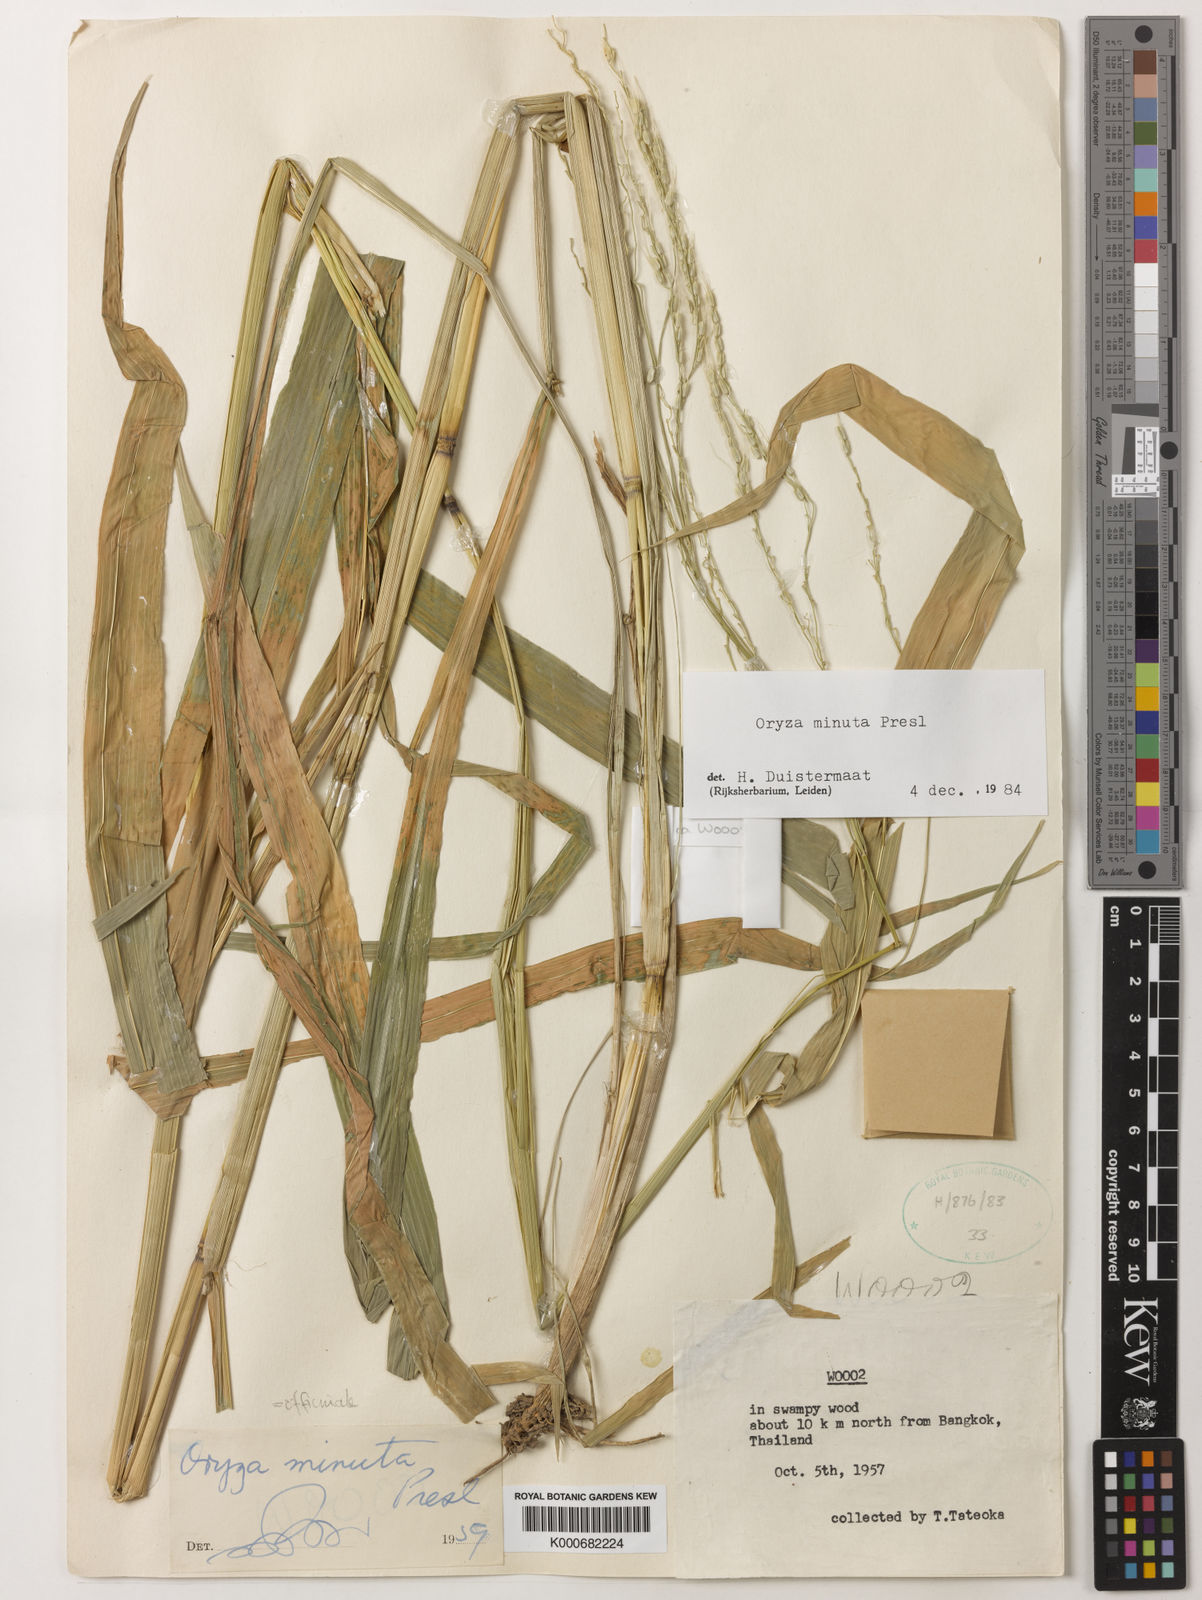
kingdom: Plantae
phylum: Tracheophyta
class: Liliopsida
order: Poales
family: Poaceae
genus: Oryza
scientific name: Oryza minuta
